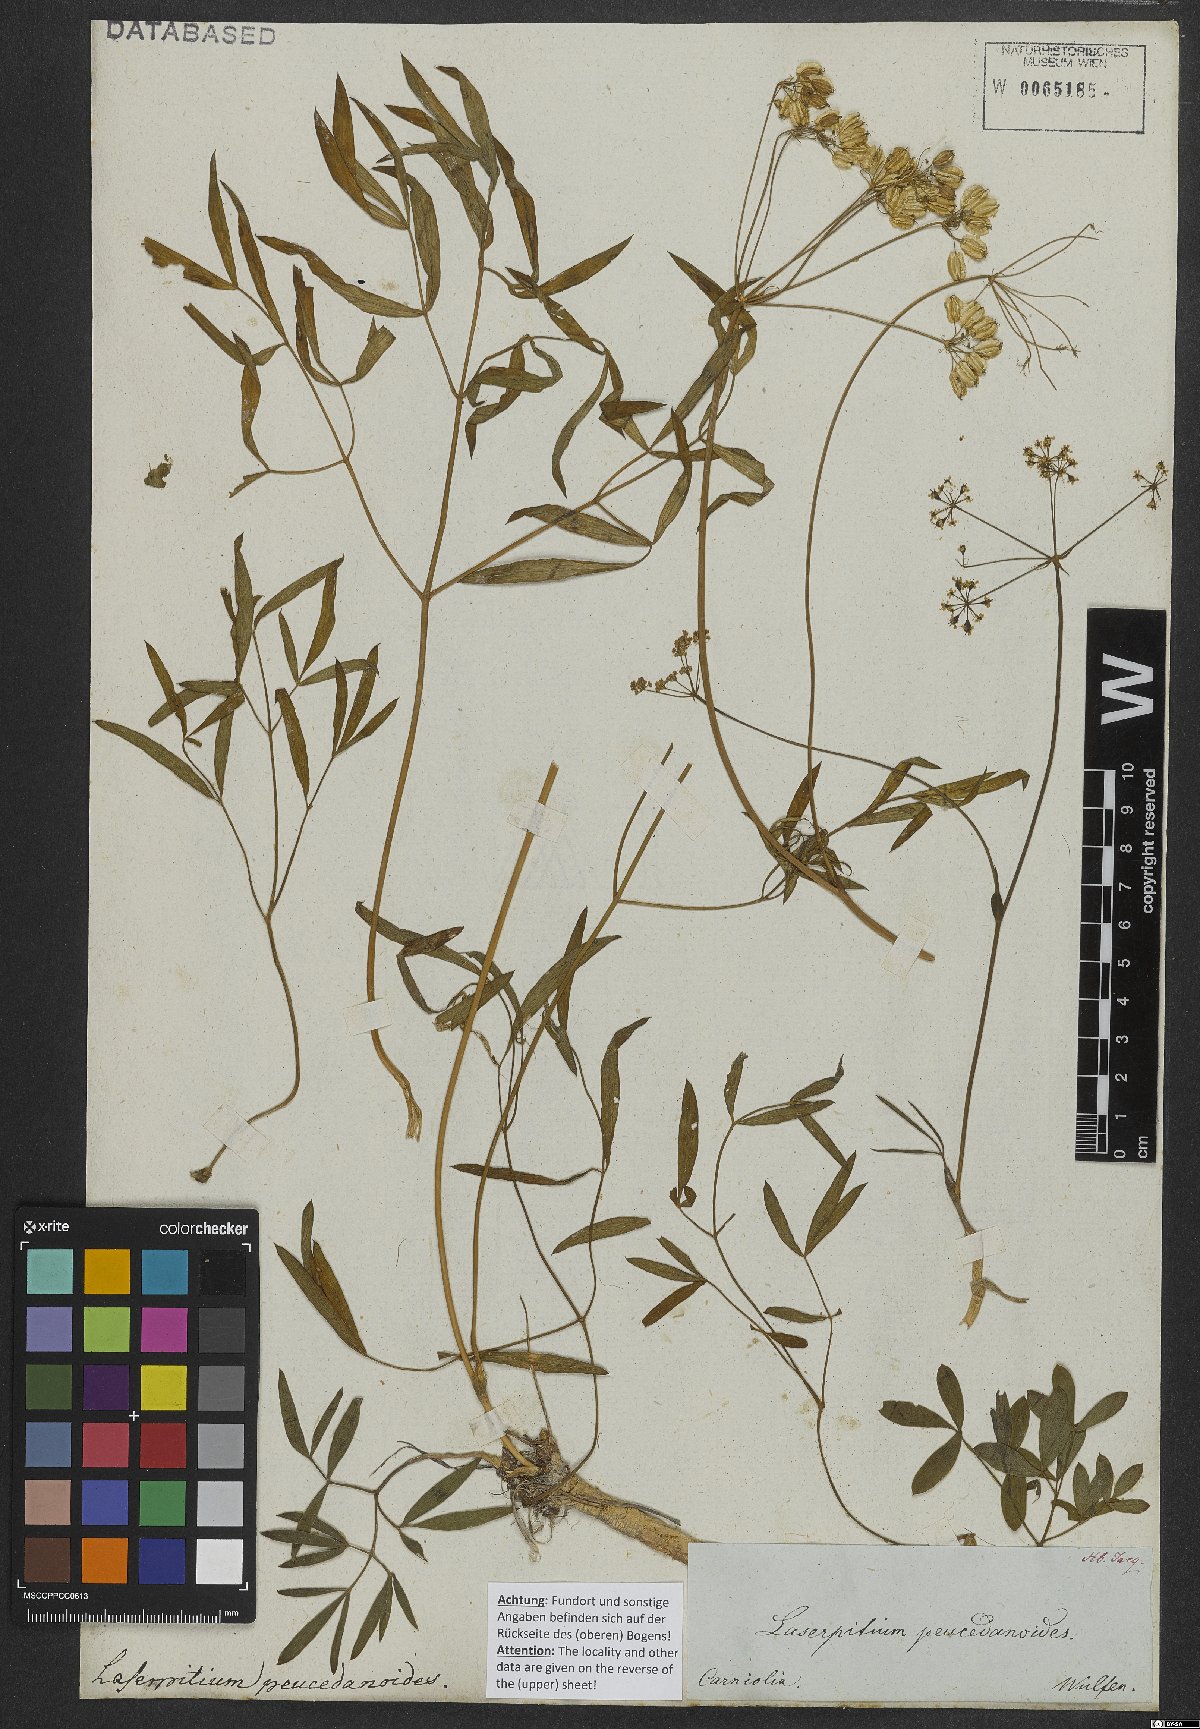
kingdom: Plantae
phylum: Tracheophyta
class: Magnoliopsida
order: Apiales
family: Apiaceae
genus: Laserpitium
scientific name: Laserpitium peucedanoides
